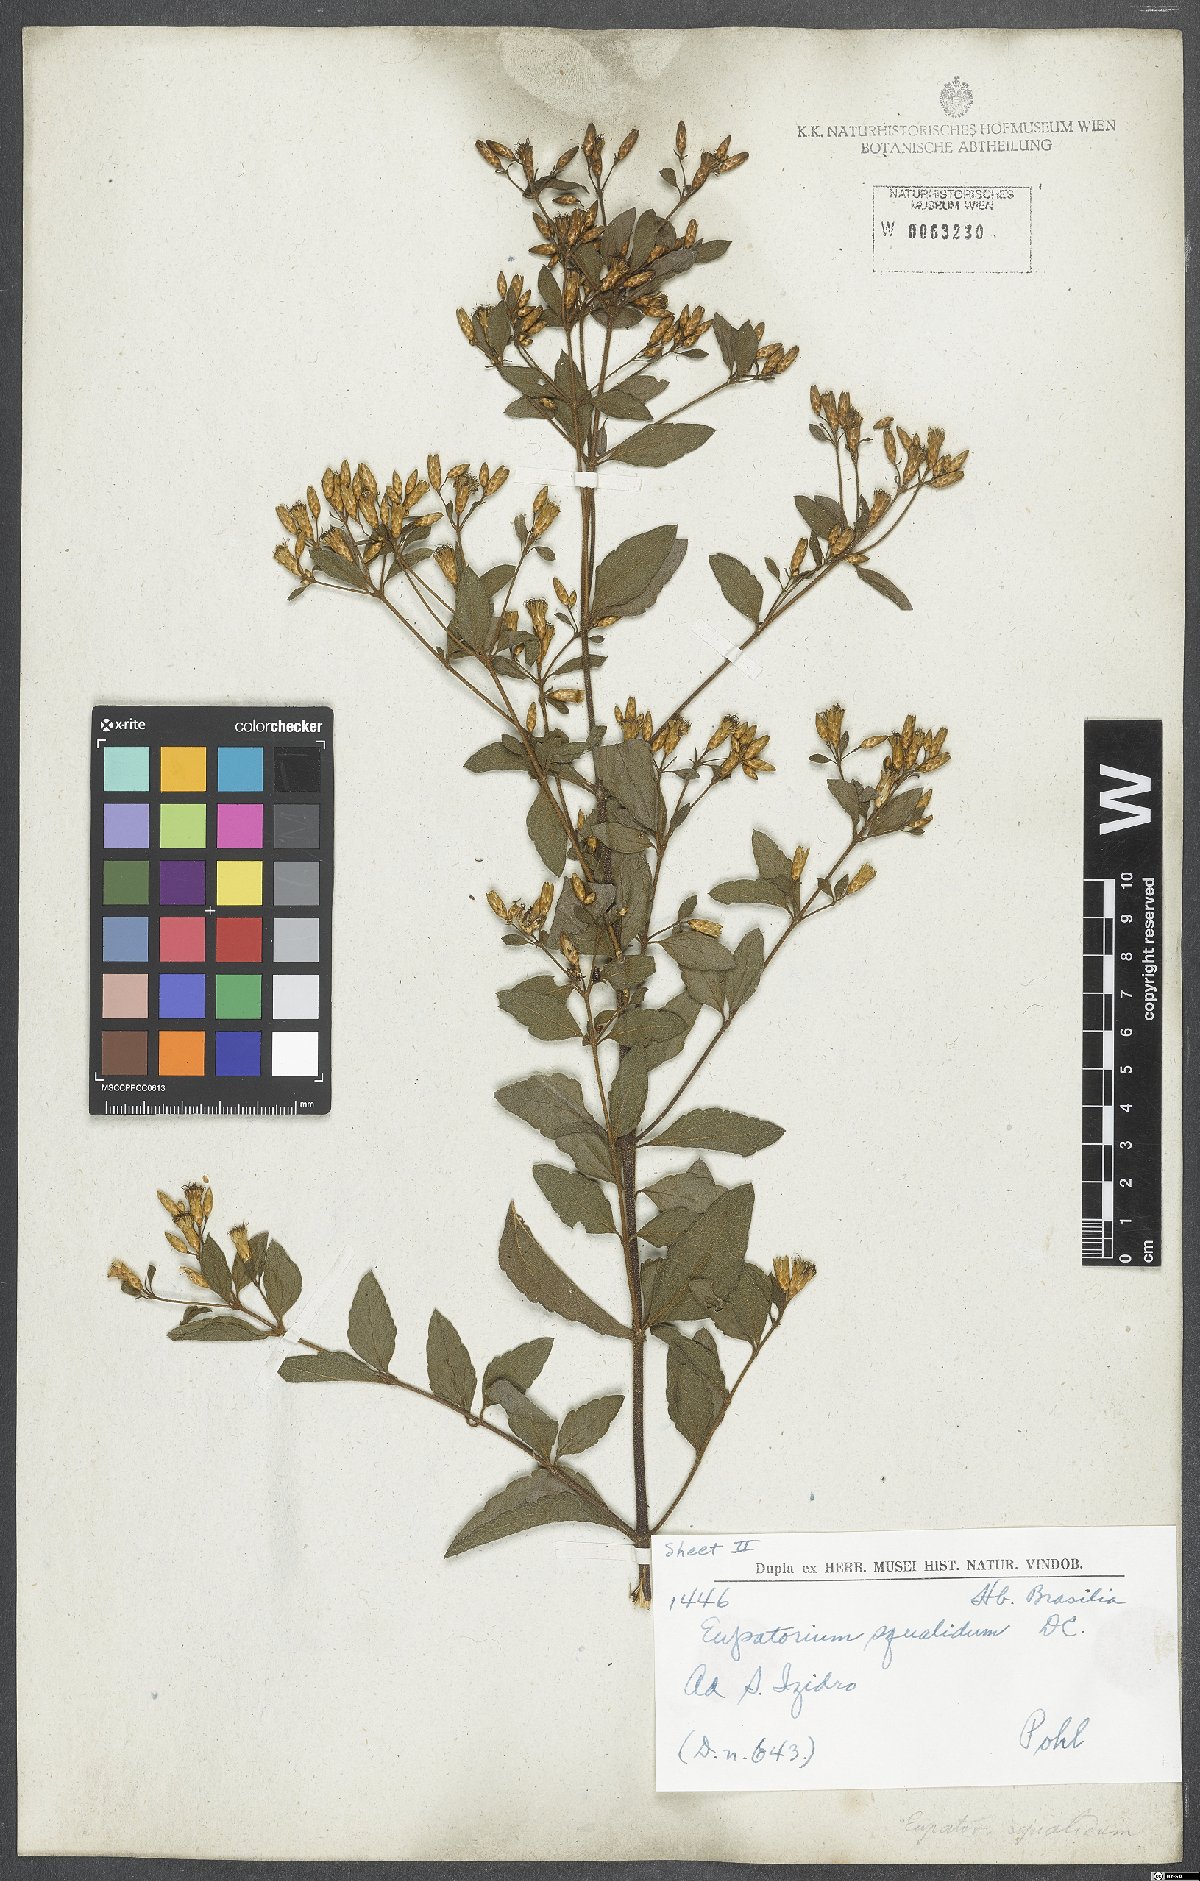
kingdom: Plantae
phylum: Tracheophyta
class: Magnoliopsida
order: Asterales
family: Asteraceae
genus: Chromolaena
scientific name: Chromolaena squalida
